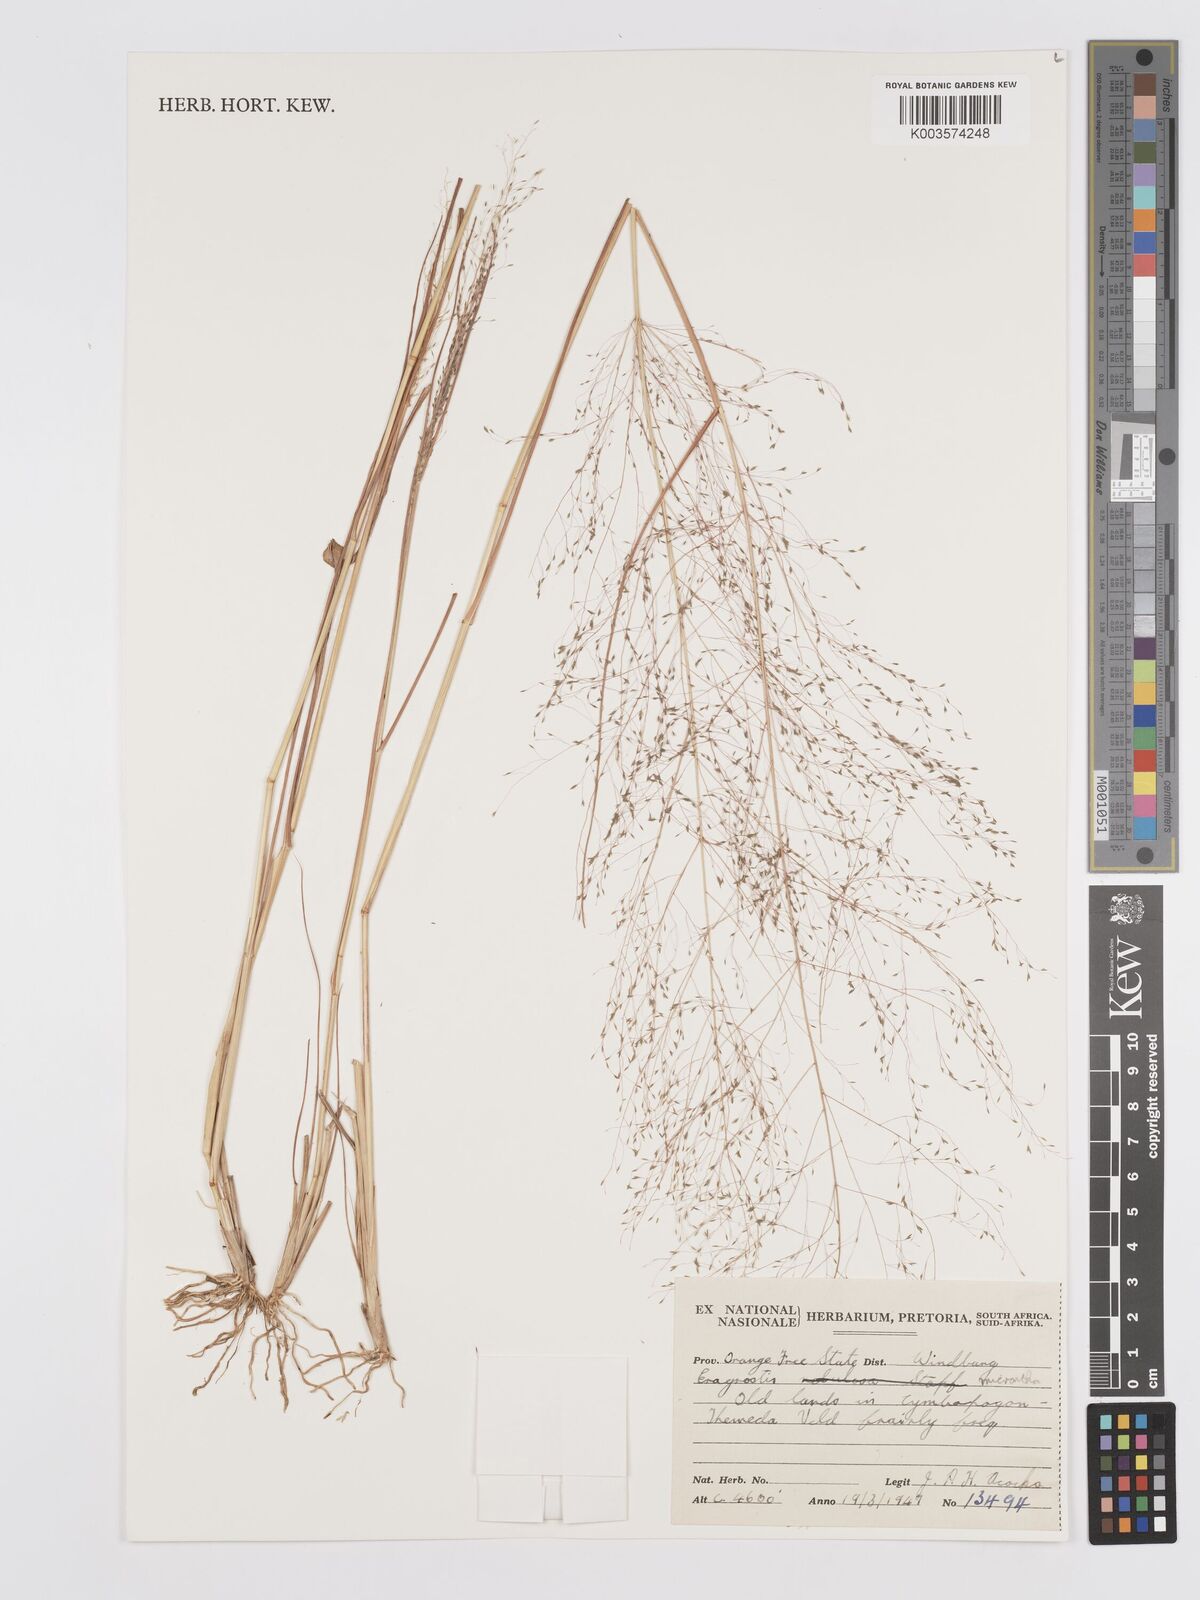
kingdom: Plantae
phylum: Tracheophyta
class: Liliopsida
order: Poales
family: Poaceae
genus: Eragrostis
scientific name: Eragrostis micrantha
